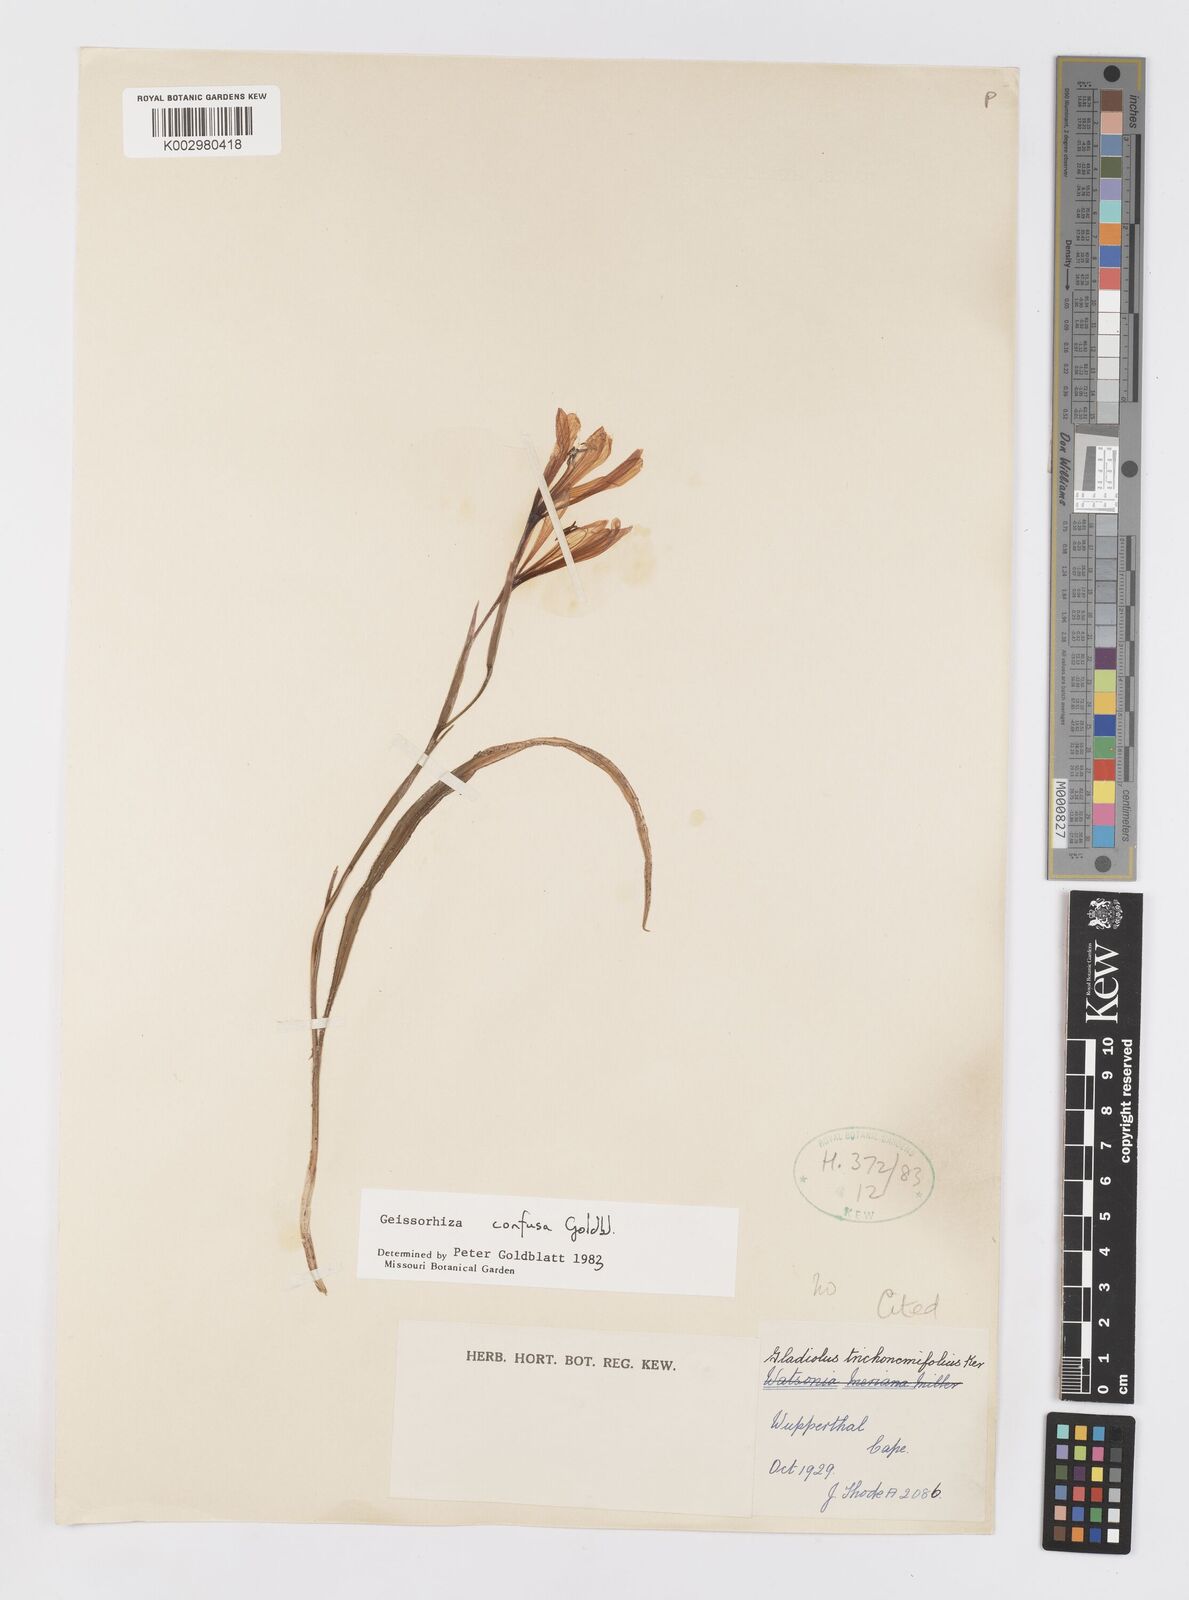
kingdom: Plantae
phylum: Tracheophyta
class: Liliopsida
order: Asparagales
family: Iridaceae
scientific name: Iridaceae
